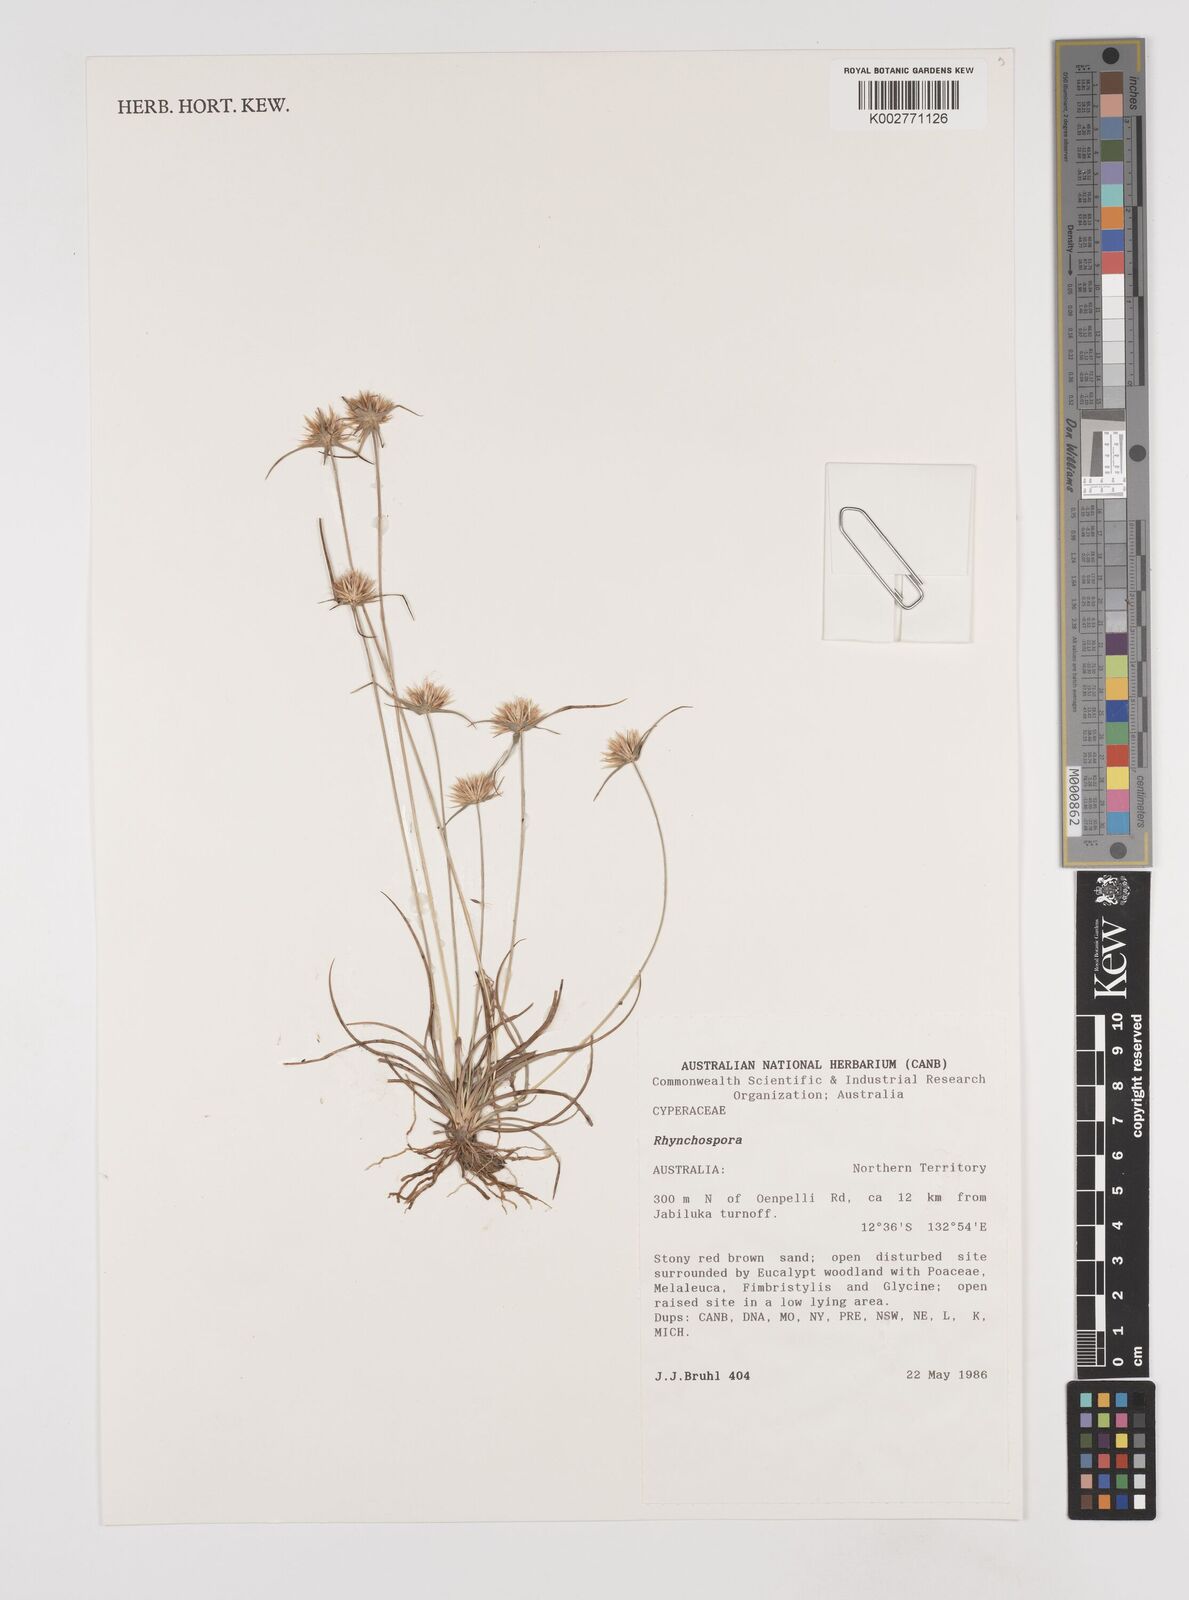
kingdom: Plantae
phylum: Tracheophyta
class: Liliopsida
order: Poales
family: Cyperaceae
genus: Rhynchospora
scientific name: Rhynchospora
